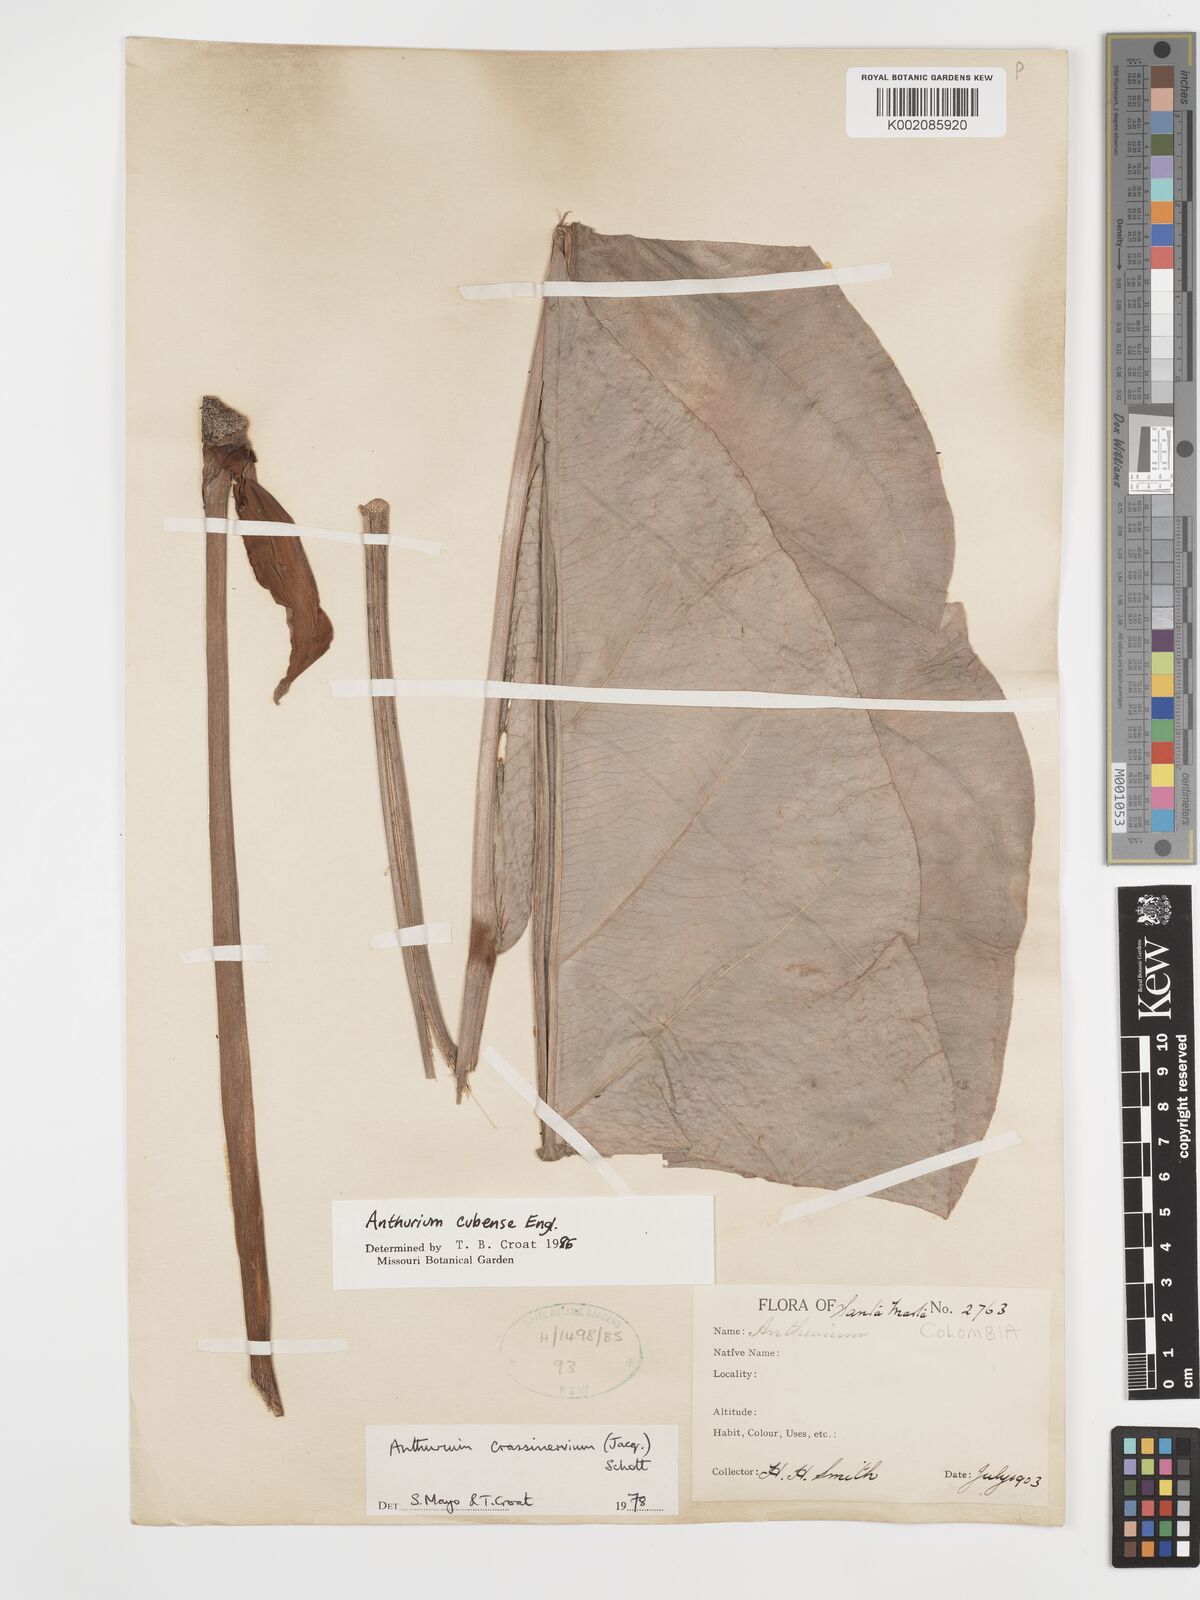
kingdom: Plantae
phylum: Tracheophyta
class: Liliopsida
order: Alismatales
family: Araceae
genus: Anthurium
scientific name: Anthurium cubense
